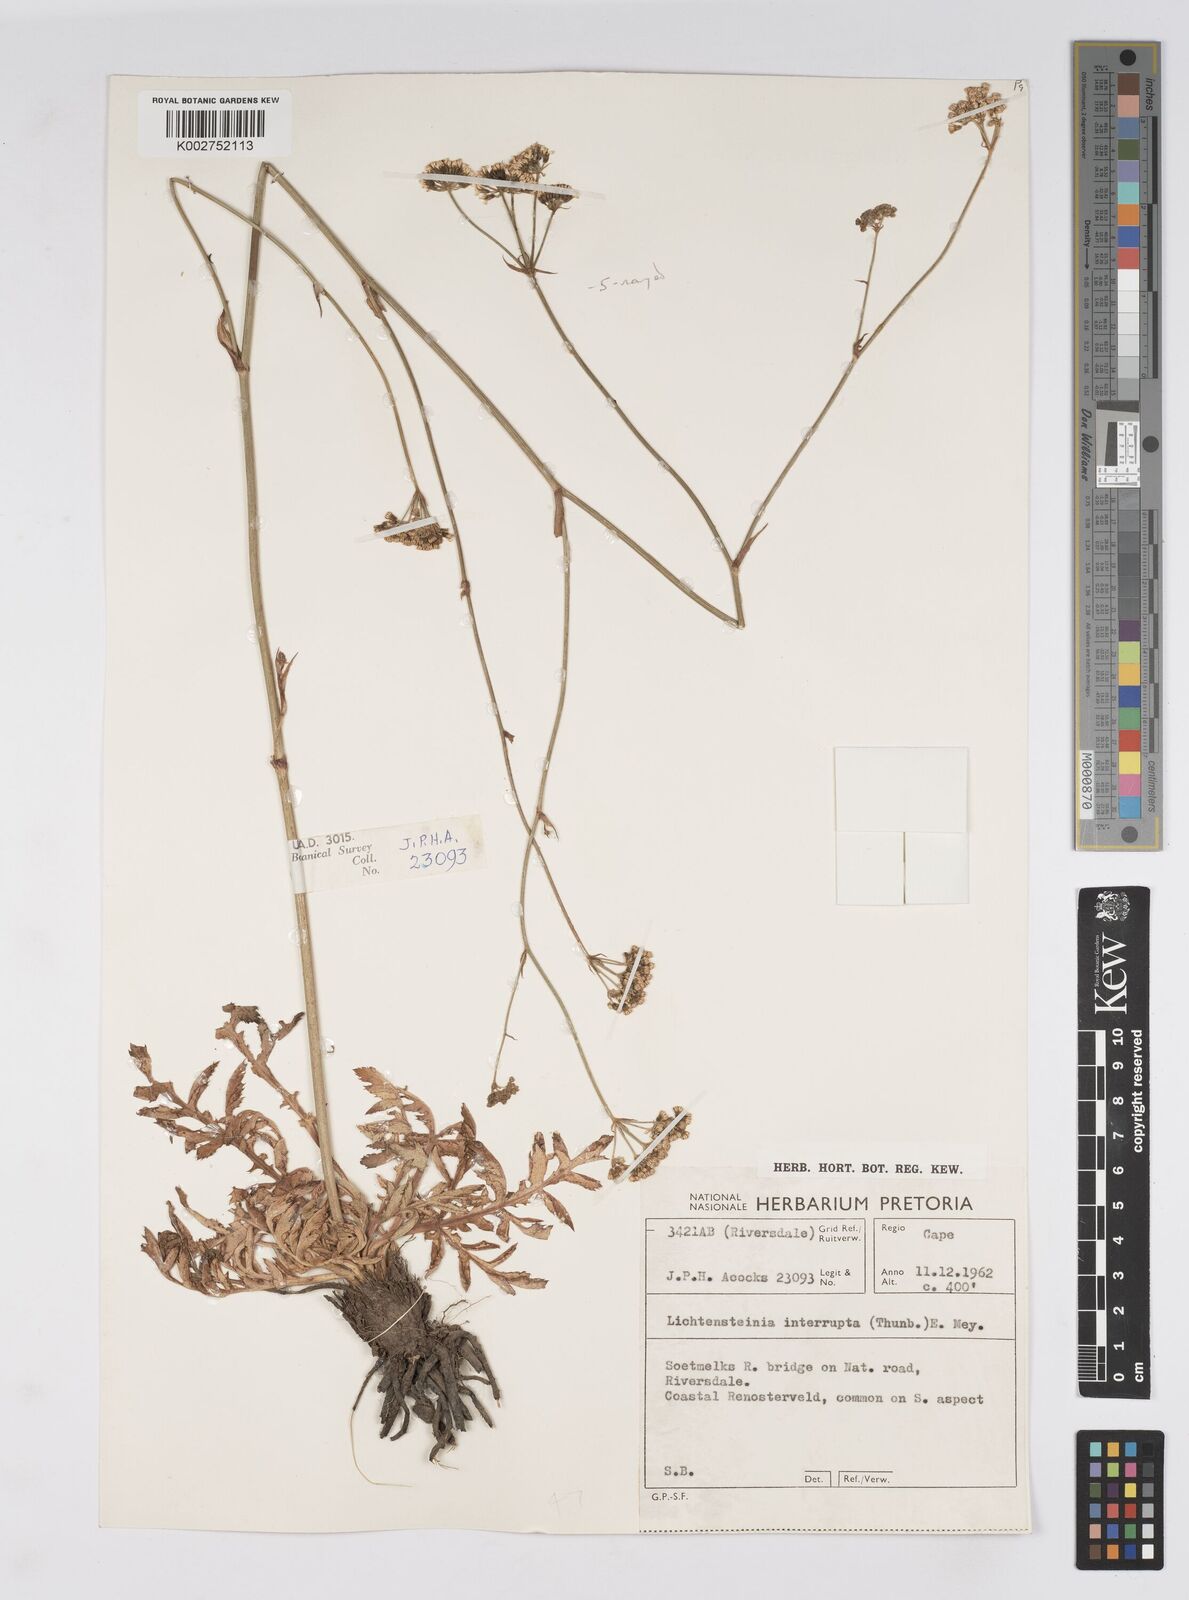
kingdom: Plantae
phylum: Tracheophyta
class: Magnoliopsida
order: Apiales
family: Apiaceae
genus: Lichtensteinia
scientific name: Lichtensteinia obscura
